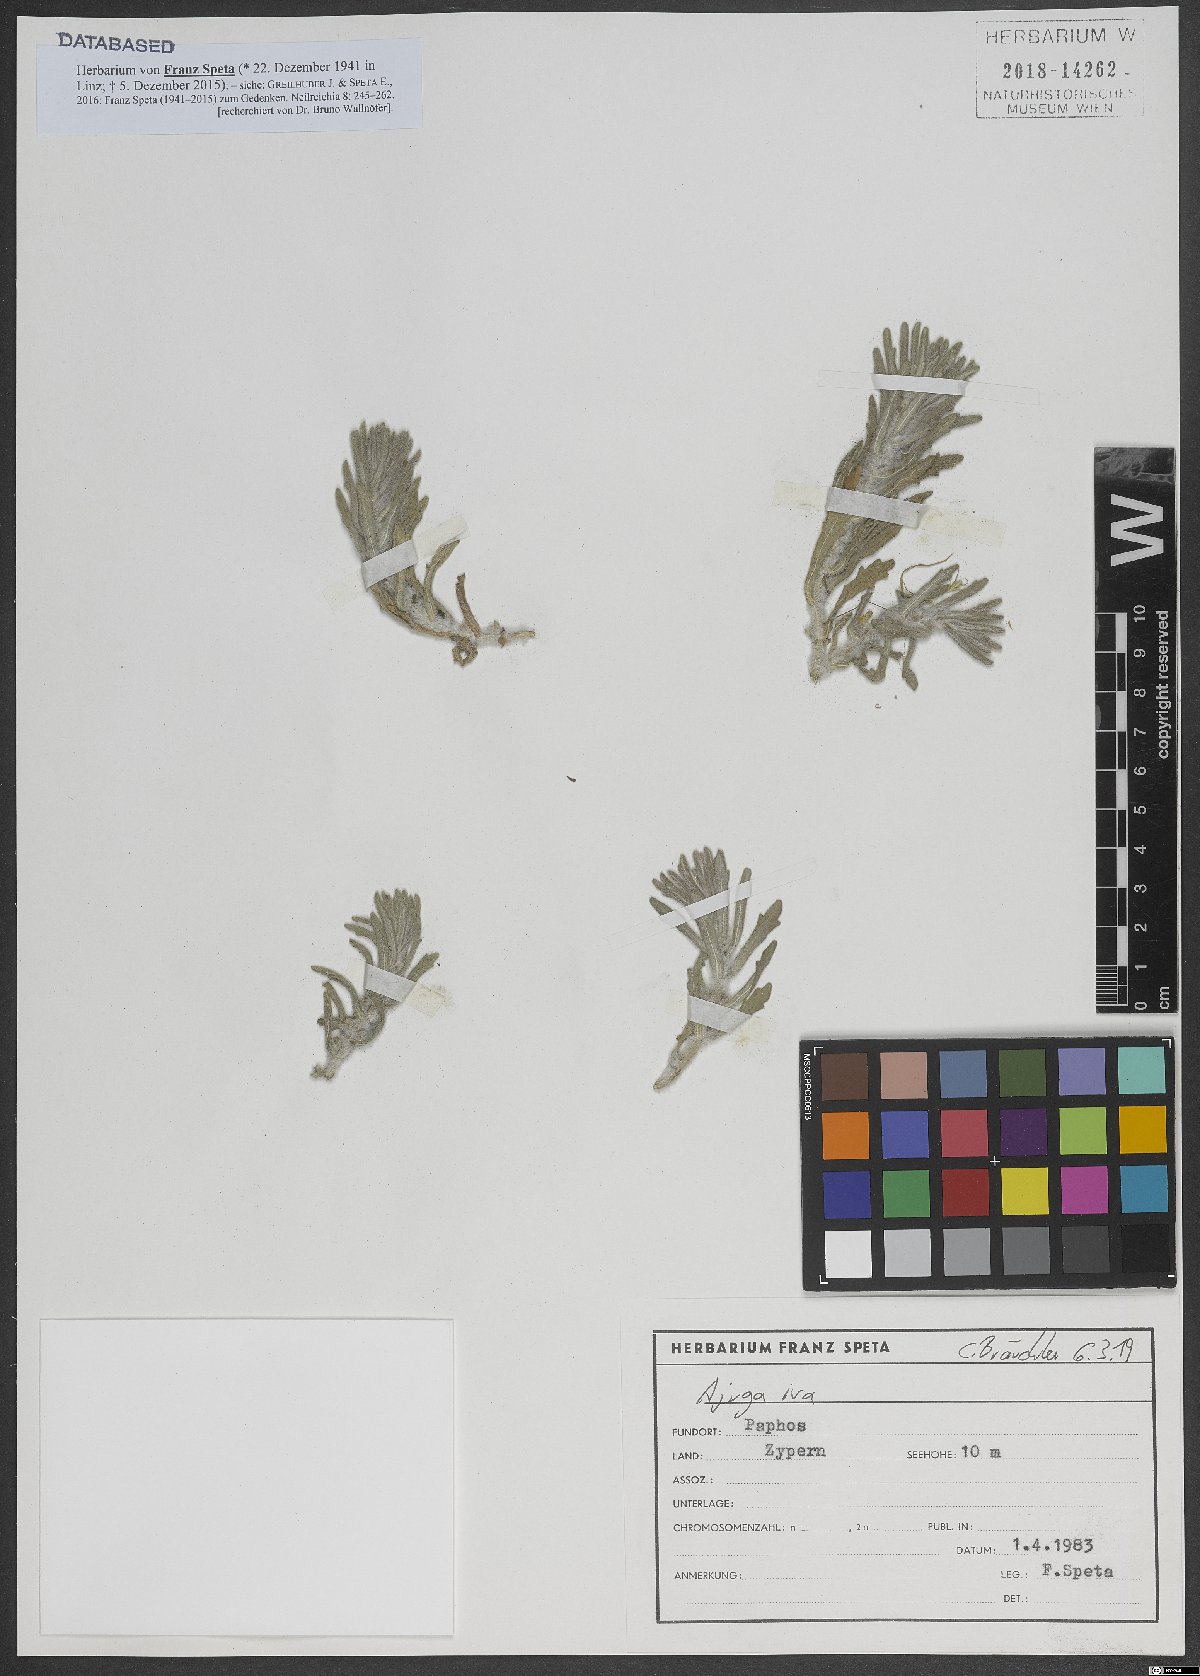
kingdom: Plantae
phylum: Tracheophyta
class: Magnoliopsida
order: Lamiales
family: Lamiaceae
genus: Ajuga
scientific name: Ajuga iva
